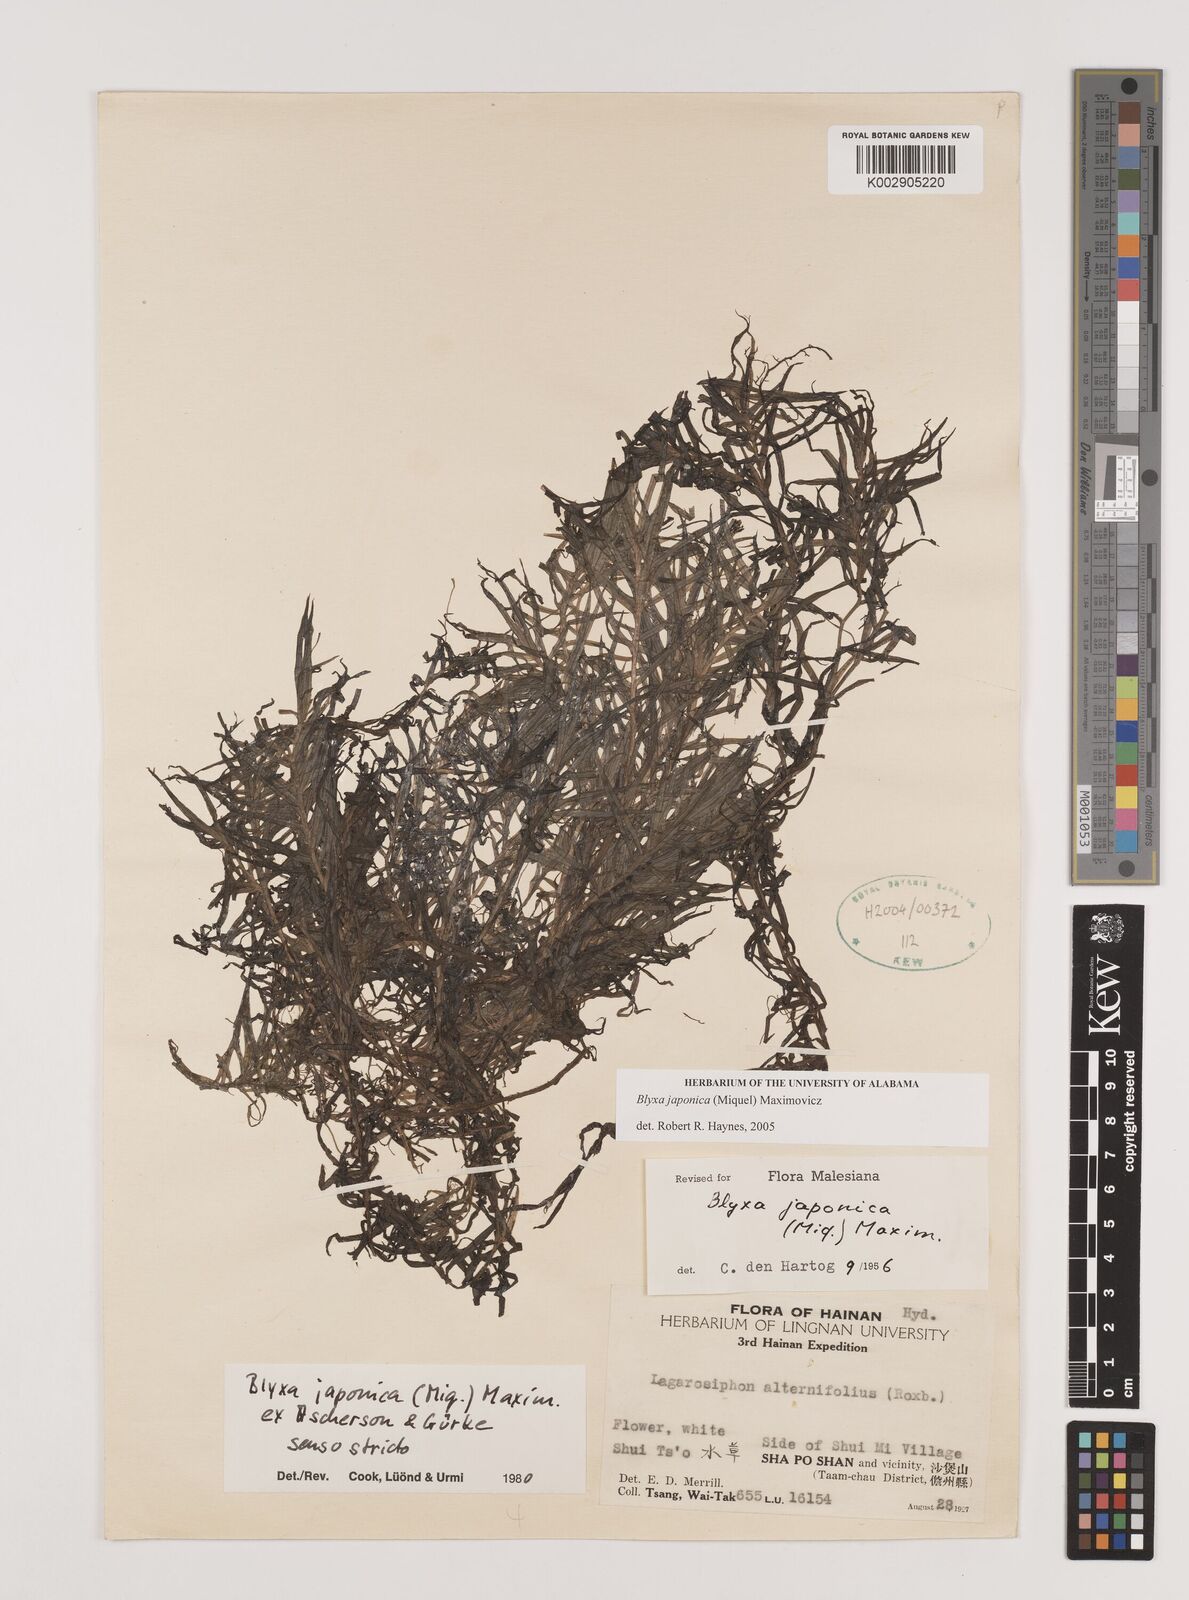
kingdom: Plantae
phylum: Tracheophyta
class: Liliopsida
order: Alismatales
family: Hydrocharitaceae
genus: Blyxa
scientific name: Blyxa japonica
